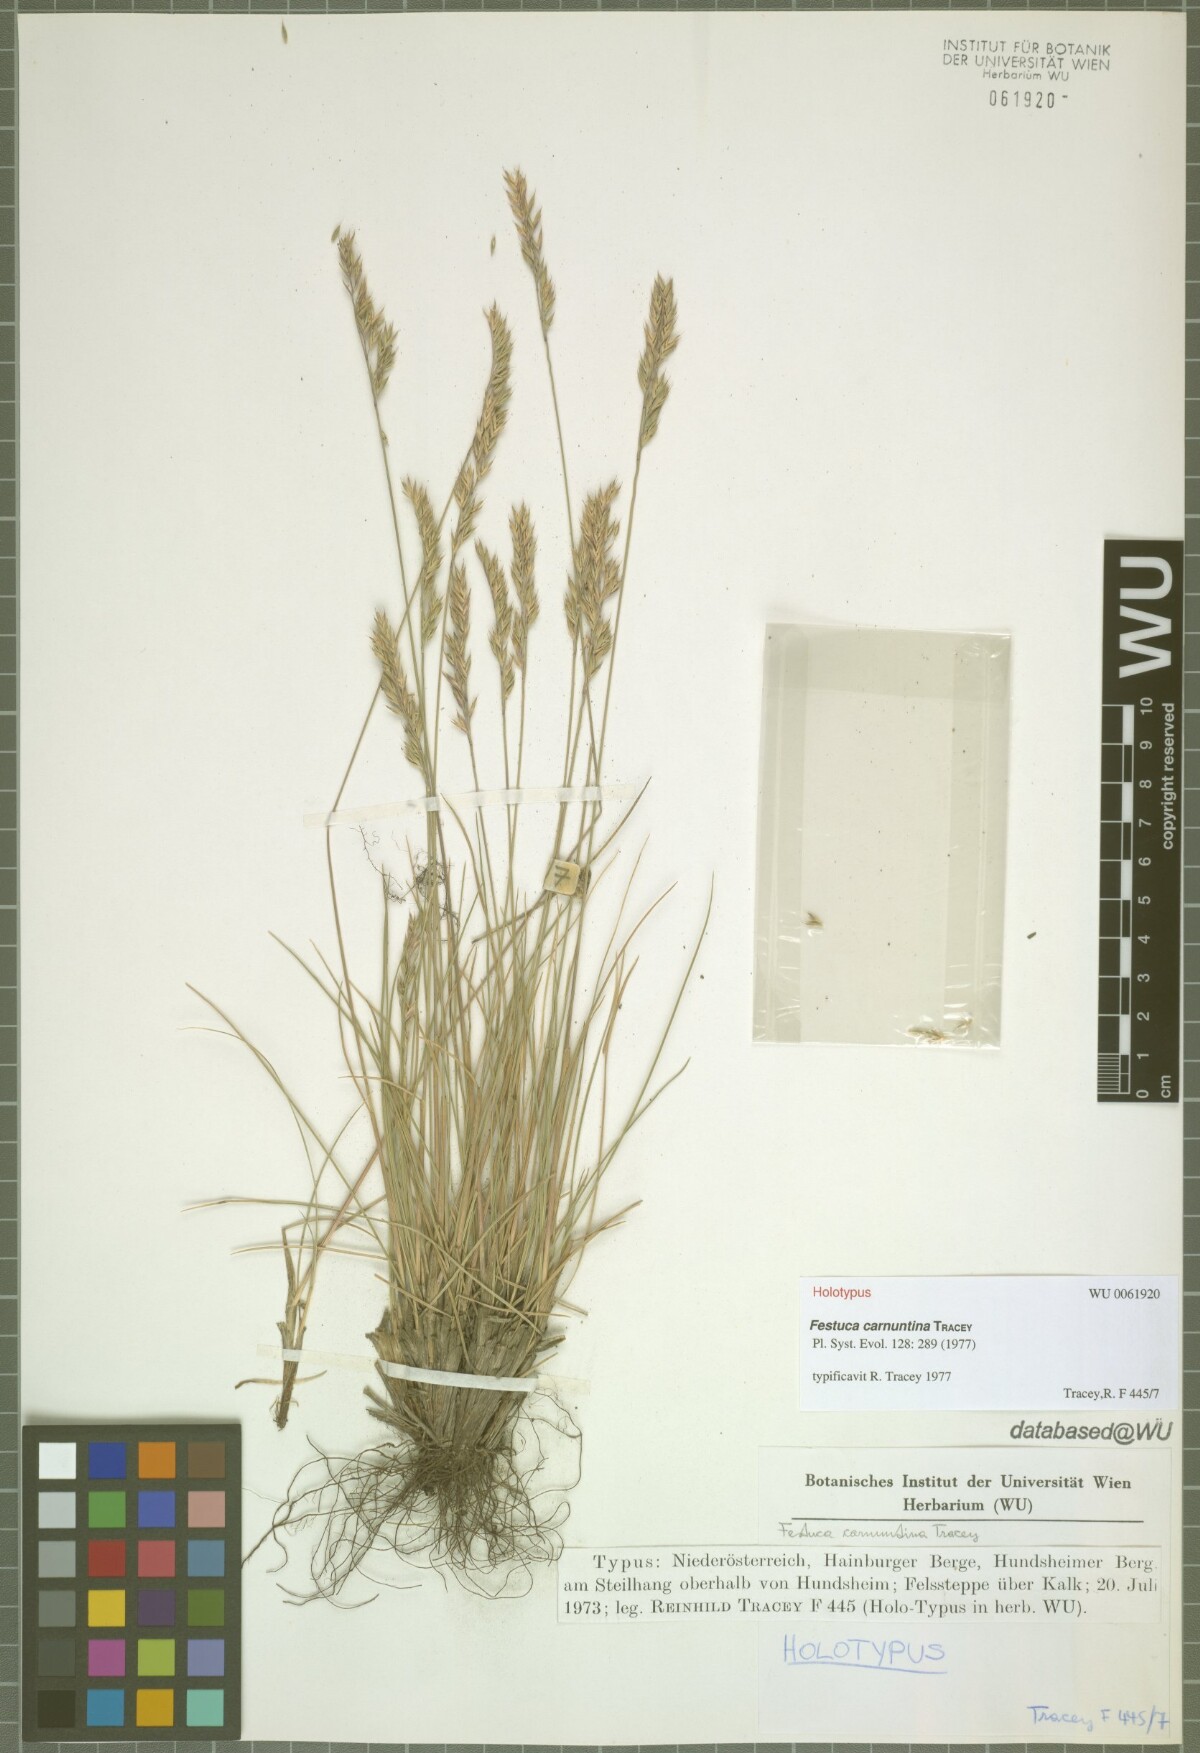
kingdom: Plantae
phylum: Tracheophyta
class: Liliopsida
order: Poales
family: Poaceae
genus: Festuca
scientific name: Festuca carnuntina
